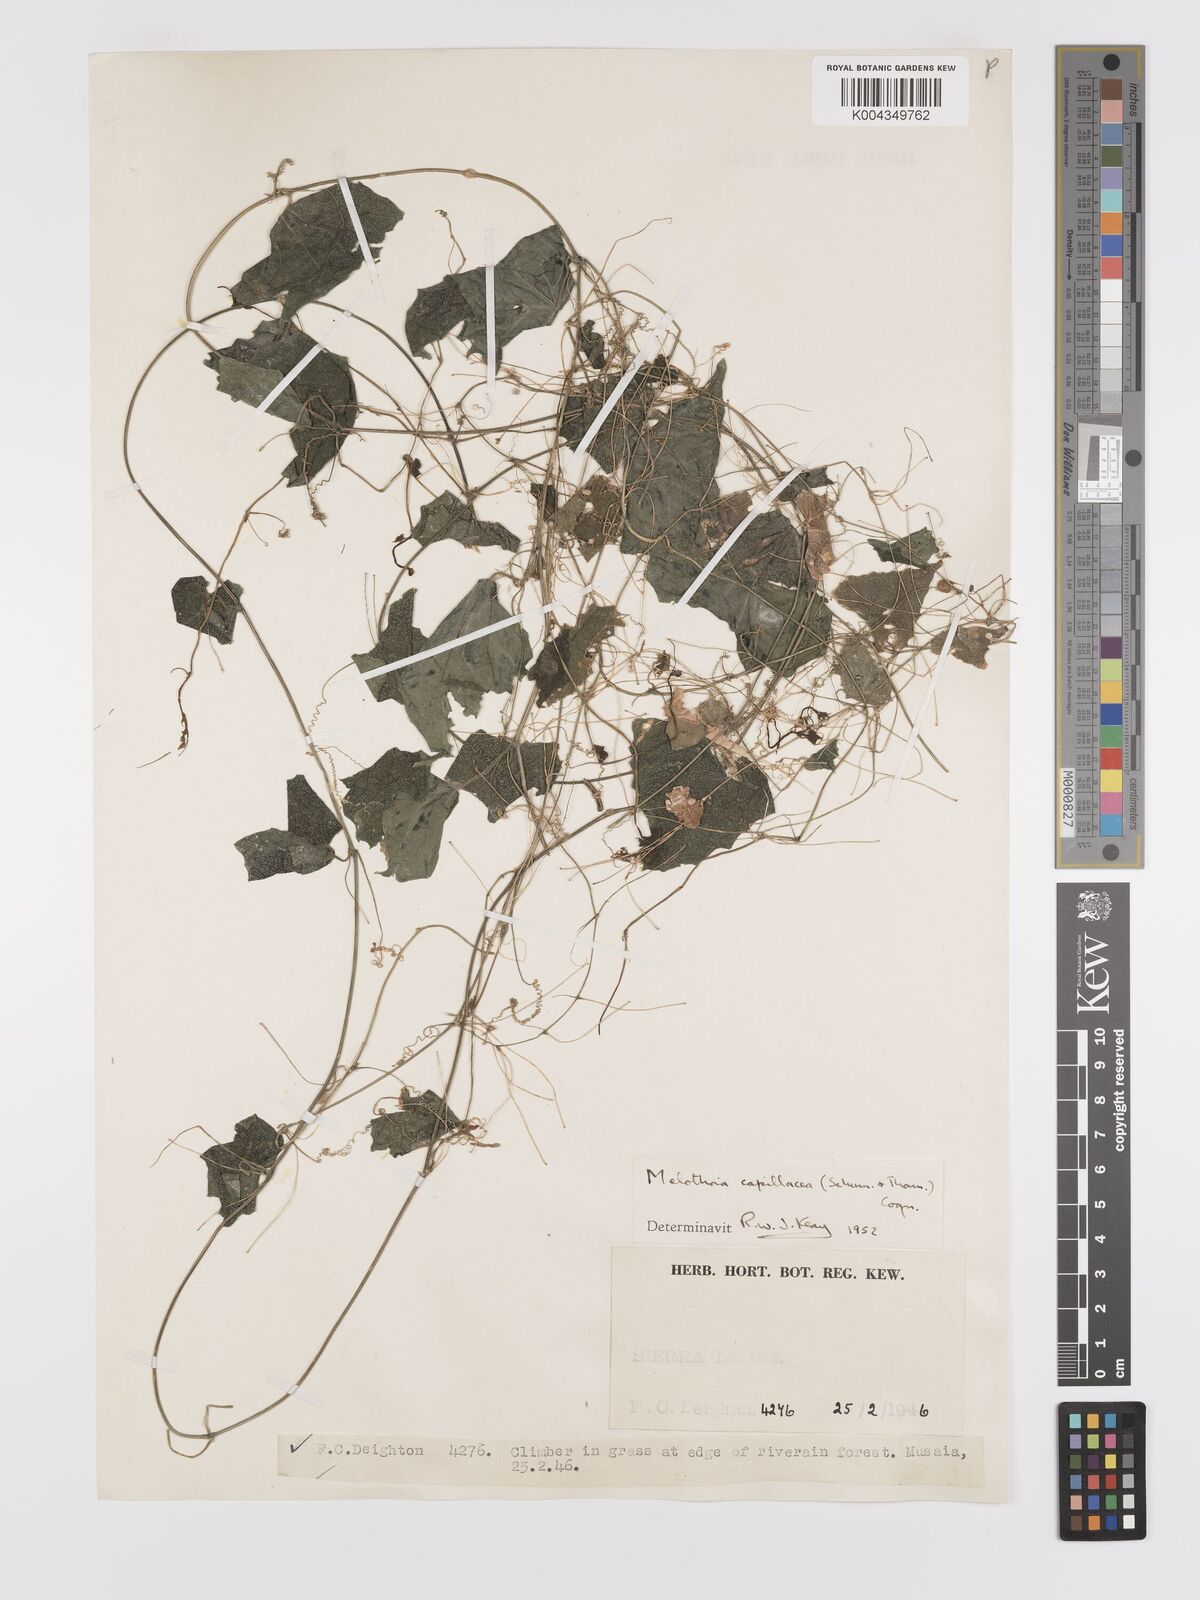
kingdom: Plantae
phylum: Tracheophyta
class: Magnoliopsida
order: Cucurbitales
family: Cucurbitaceae
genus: Zehneria
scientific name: Zehneria capillacea
